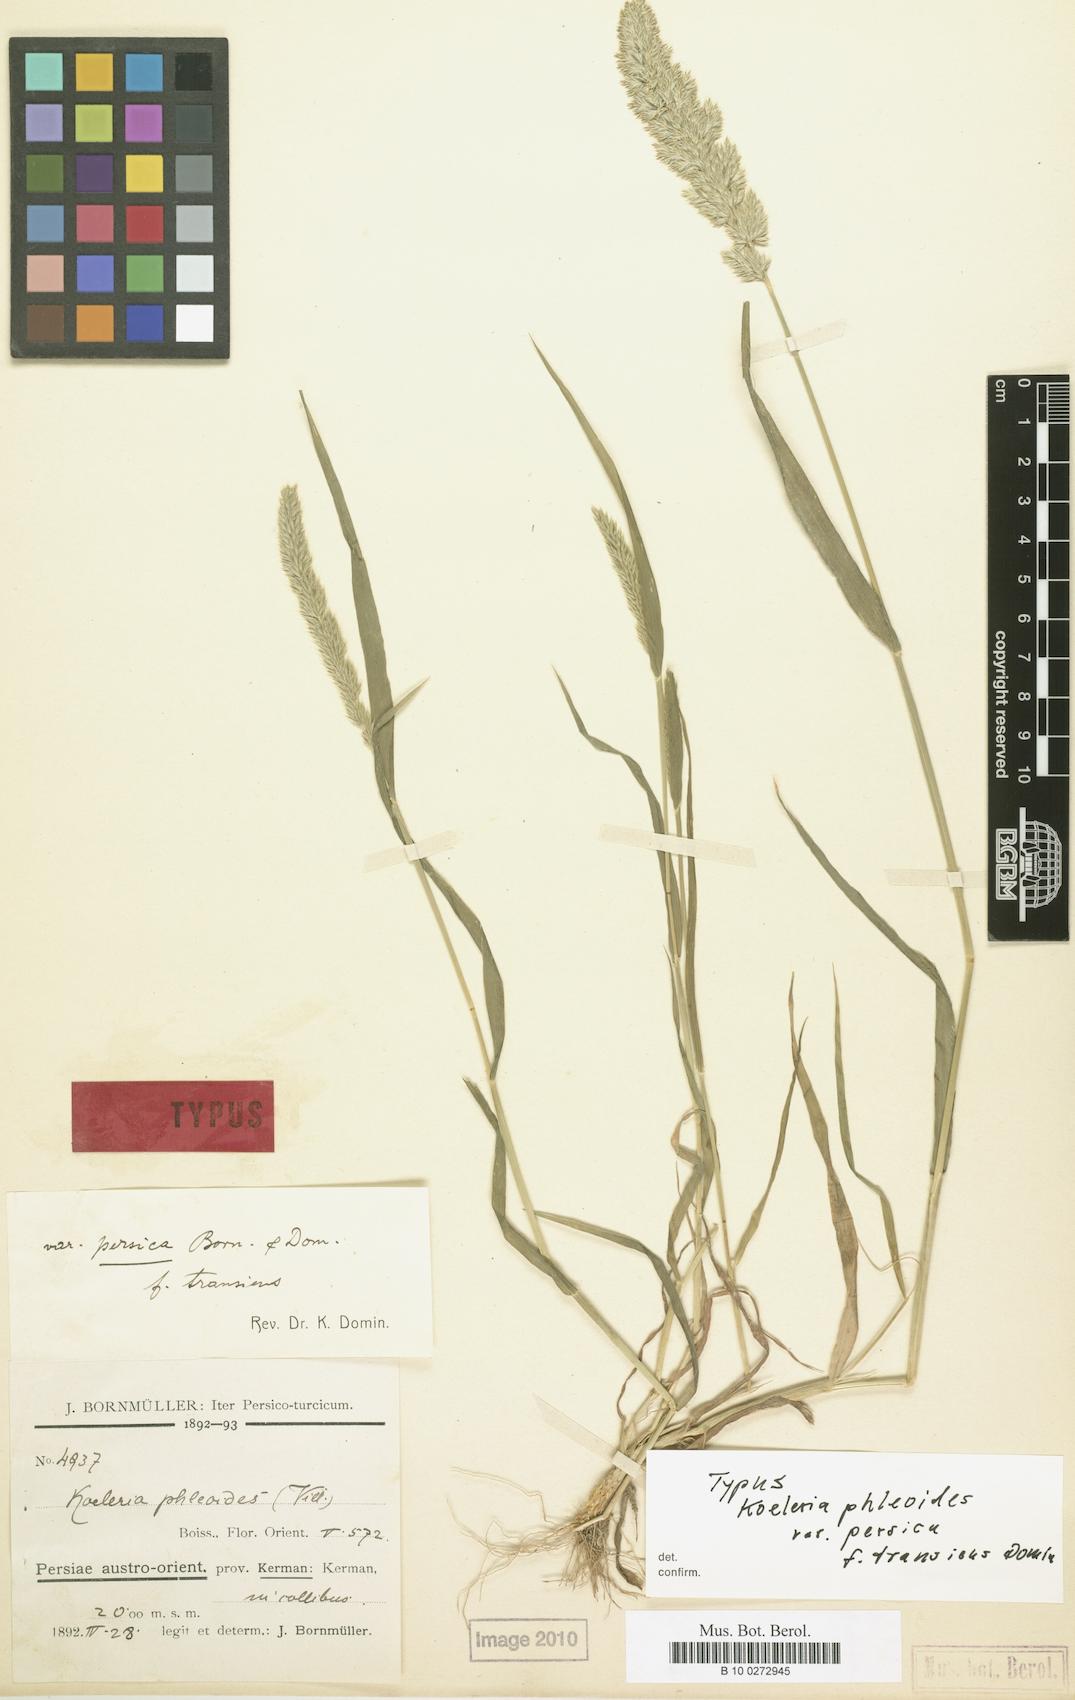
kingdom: Plantae
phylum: Tracheophyta
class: Liliopsida
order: Poales
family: Poaceae
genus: Rostraria
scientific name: Rostraria cristata
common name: Mediterranean hair-grass
